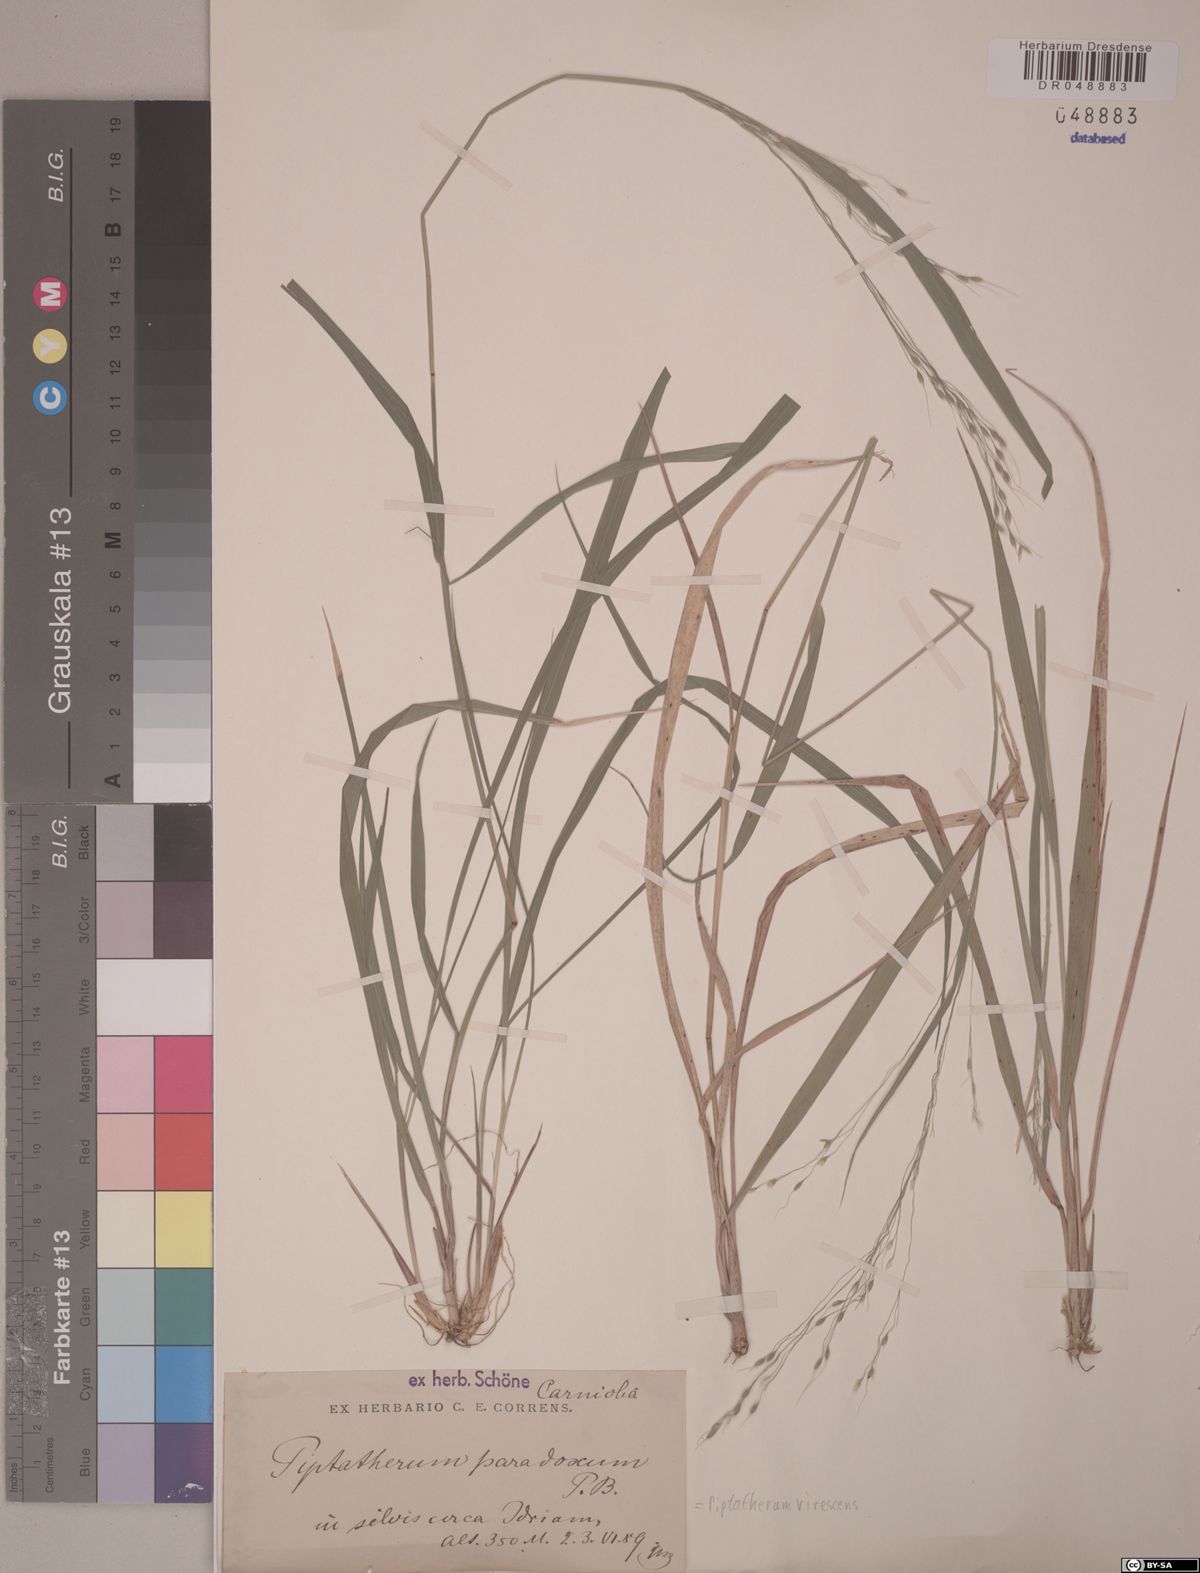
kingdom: Plantae
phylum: Tracheophyta
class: Liliopsida
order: Poales
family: Poaceae
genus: Achnatherum
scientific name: Achnatherum paradoxum
